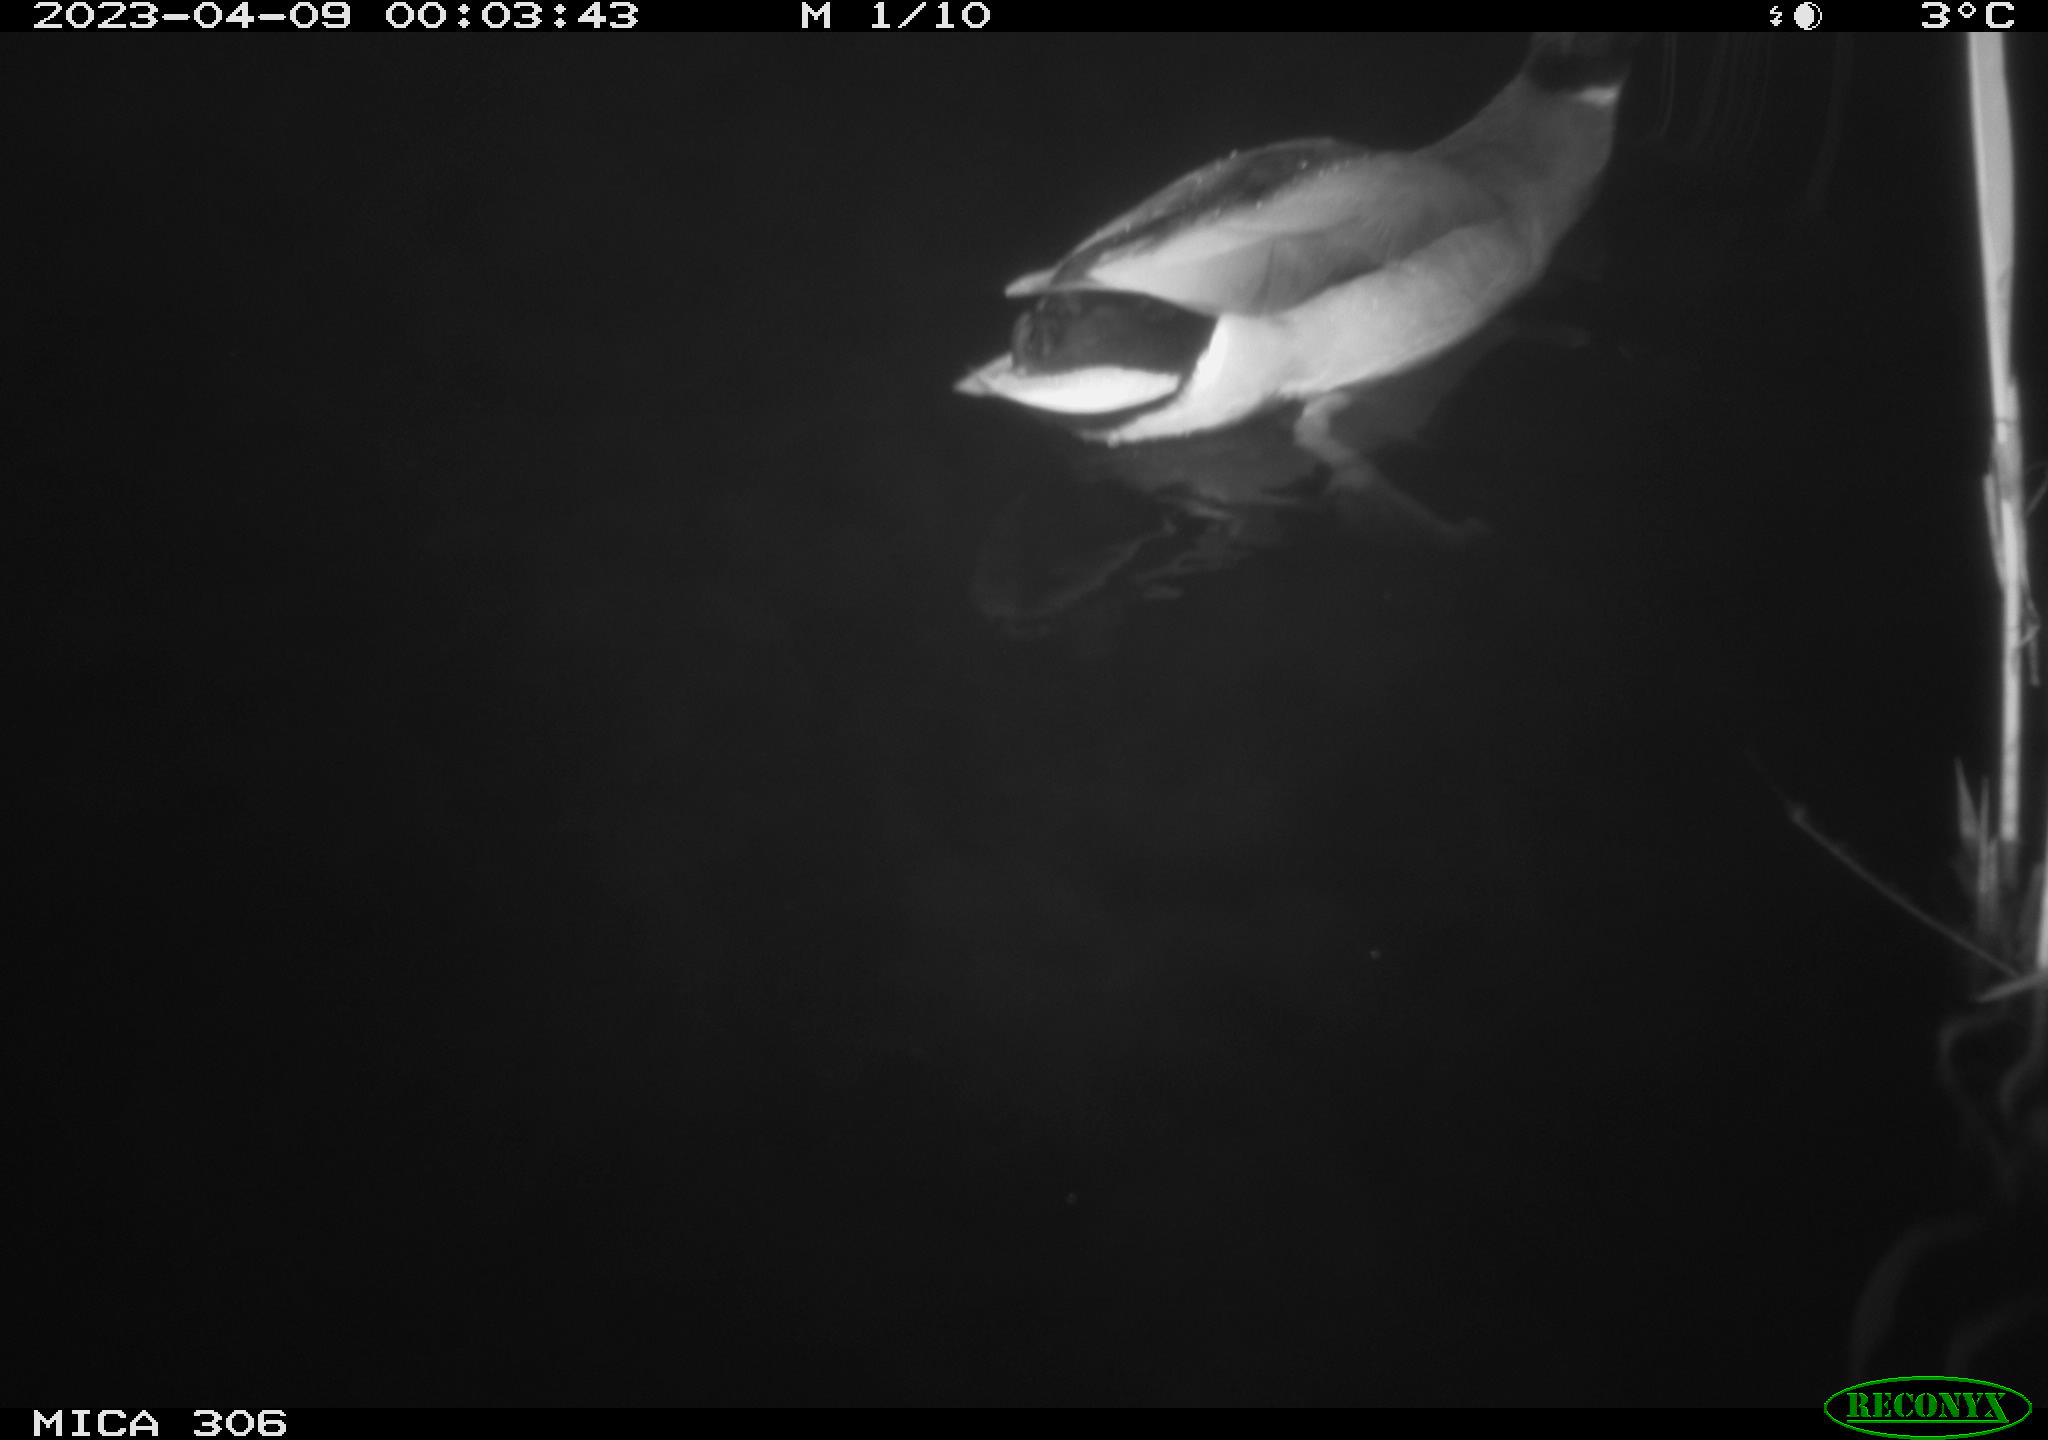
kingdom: Animalia
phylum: Chordata
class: Aves
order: Anseriformes
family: Anatidae
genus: Anas
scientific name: Anas
